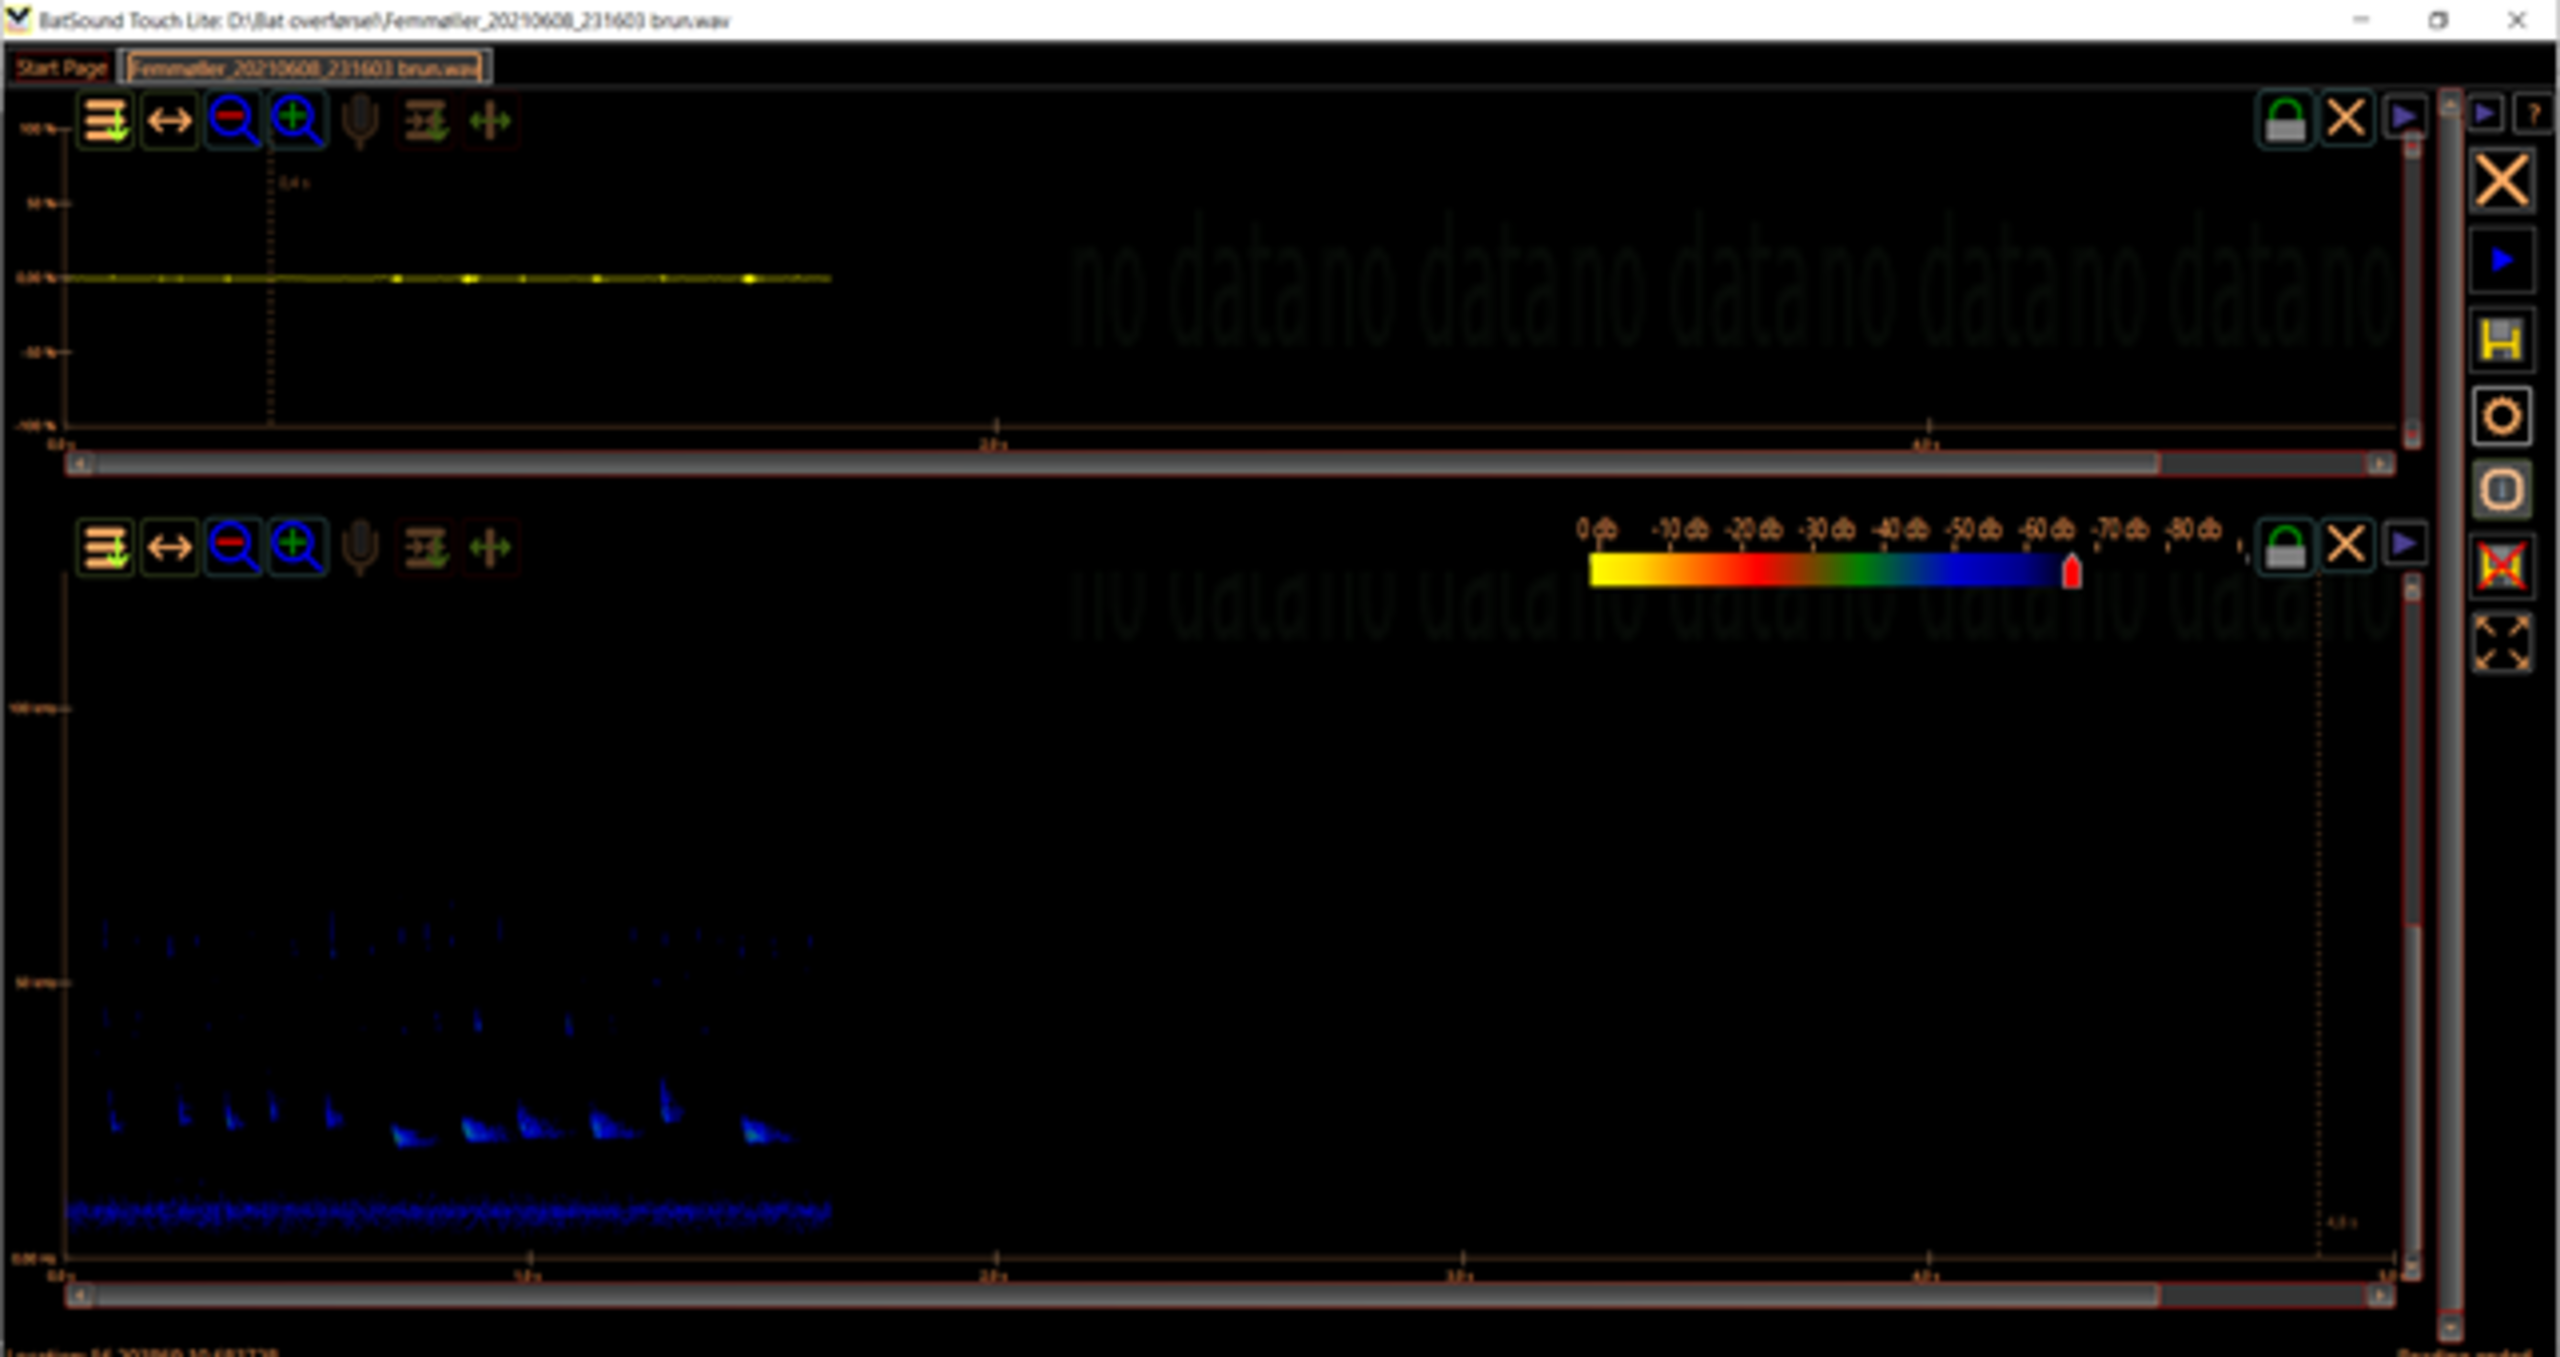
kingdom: Animalia
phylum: Chordata
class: Mammalia
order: Chiroptera
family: Vespertilionidae
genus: Nyctalus
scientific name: Nyctalus noctula
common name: Brunflagermus
